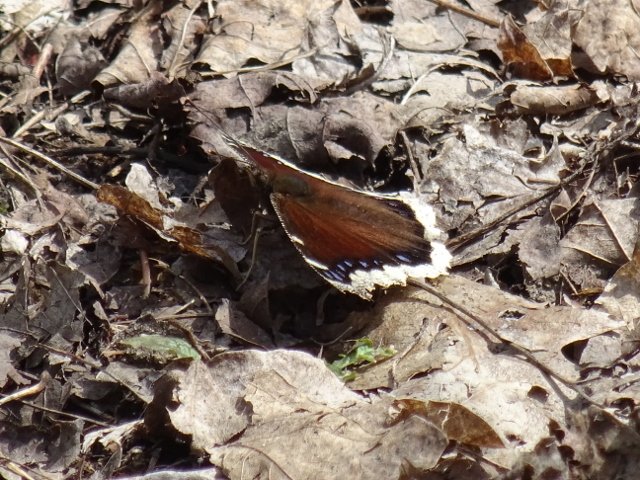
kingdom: Animalia
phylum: Arthropoda
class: Insecta
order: Lepidoptera
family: Nymphalidae
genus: Nymphalis
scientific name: Nymphalis antiopa
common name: Mourning Cloak
